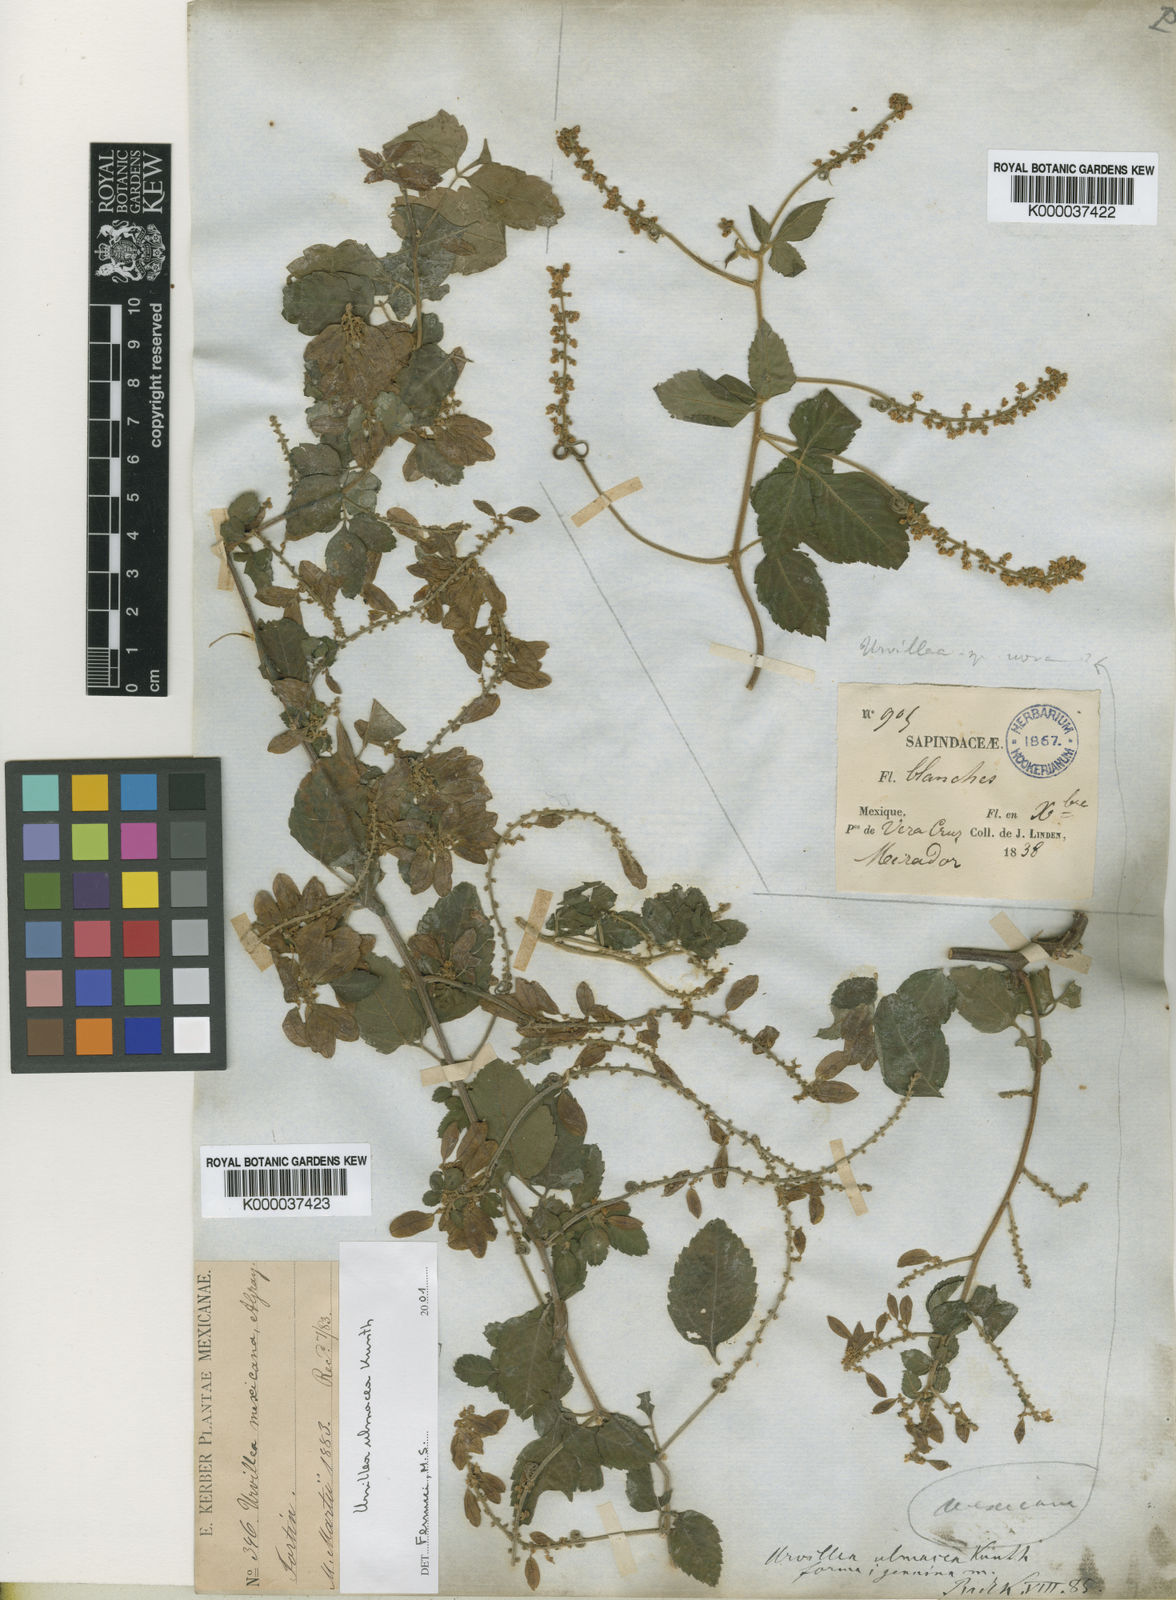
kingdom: Plantae
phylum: Tracheophyta
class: Magnoliopsida
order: Sapindales
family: Sapindaceae
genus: Urvillea
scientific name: Urvillea ulmacea
